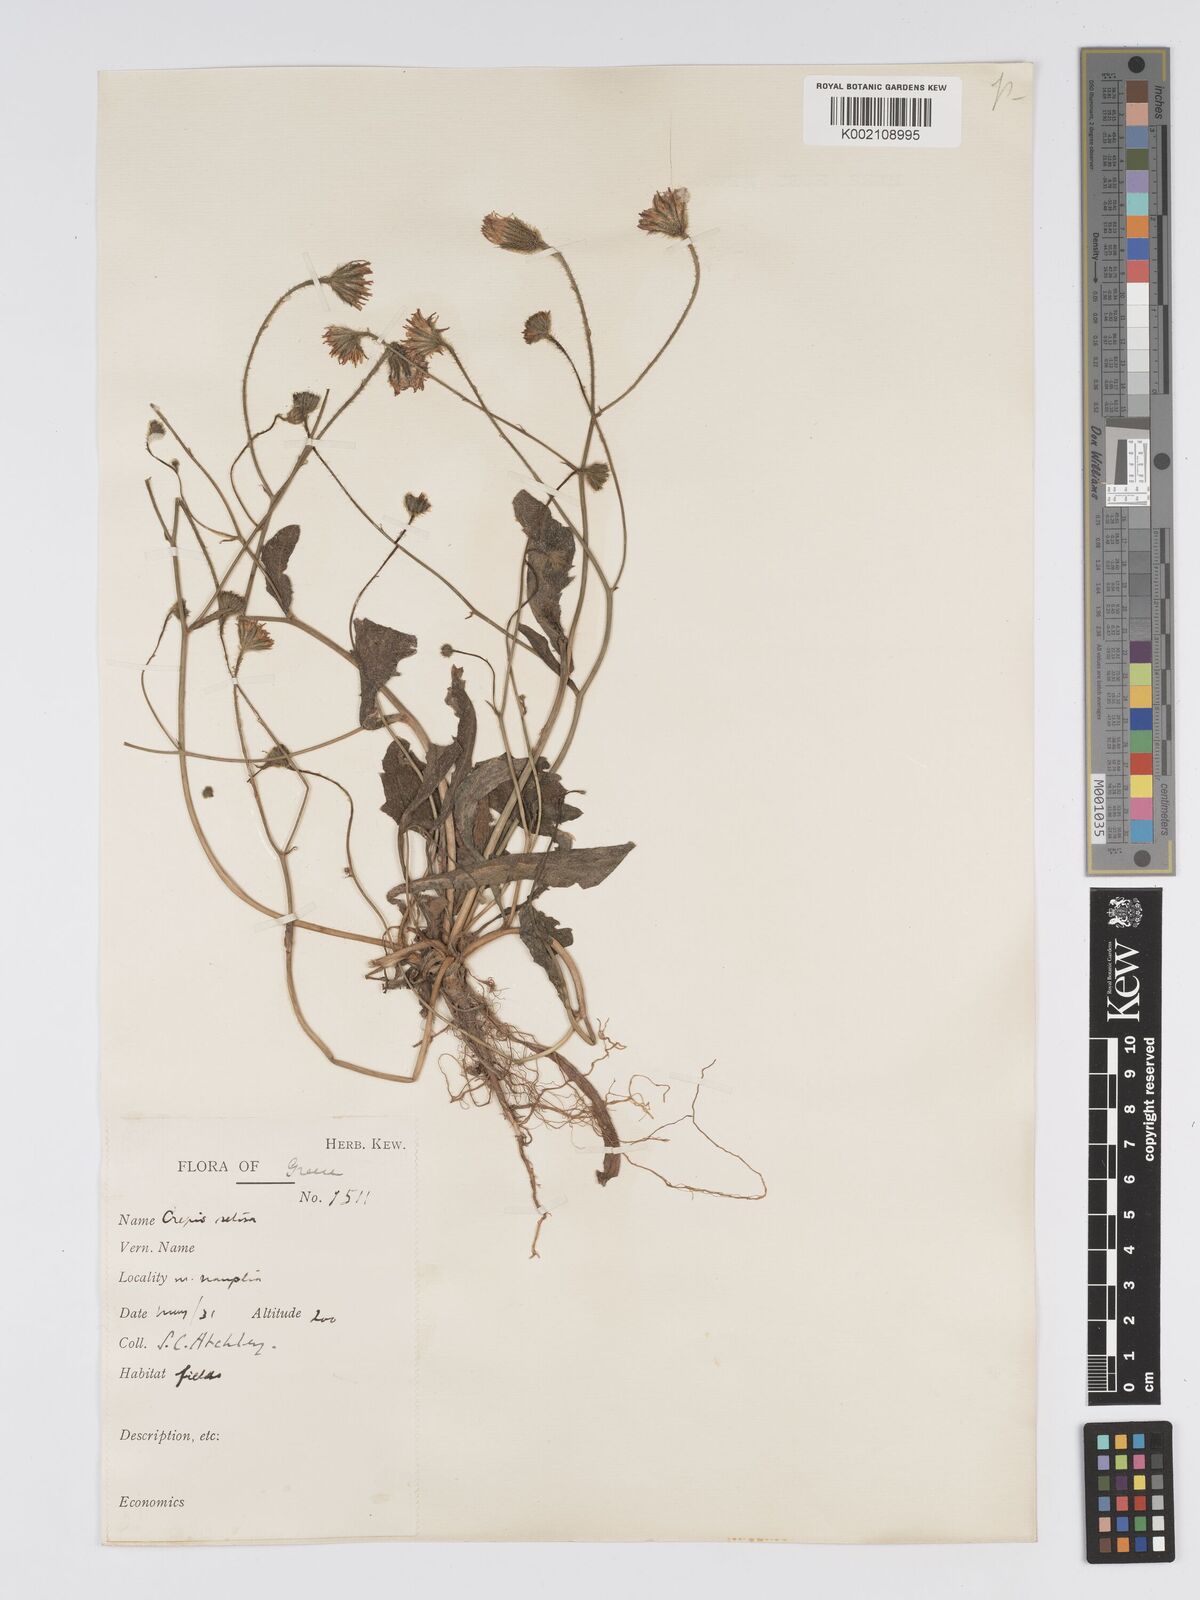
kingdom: Plantae
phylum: Tracheophyta
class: Magnoliopsida
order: Asterales
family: Asteraceae
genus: Crepis
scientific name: Crepis setosa
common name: Bristly hawk's-beard
